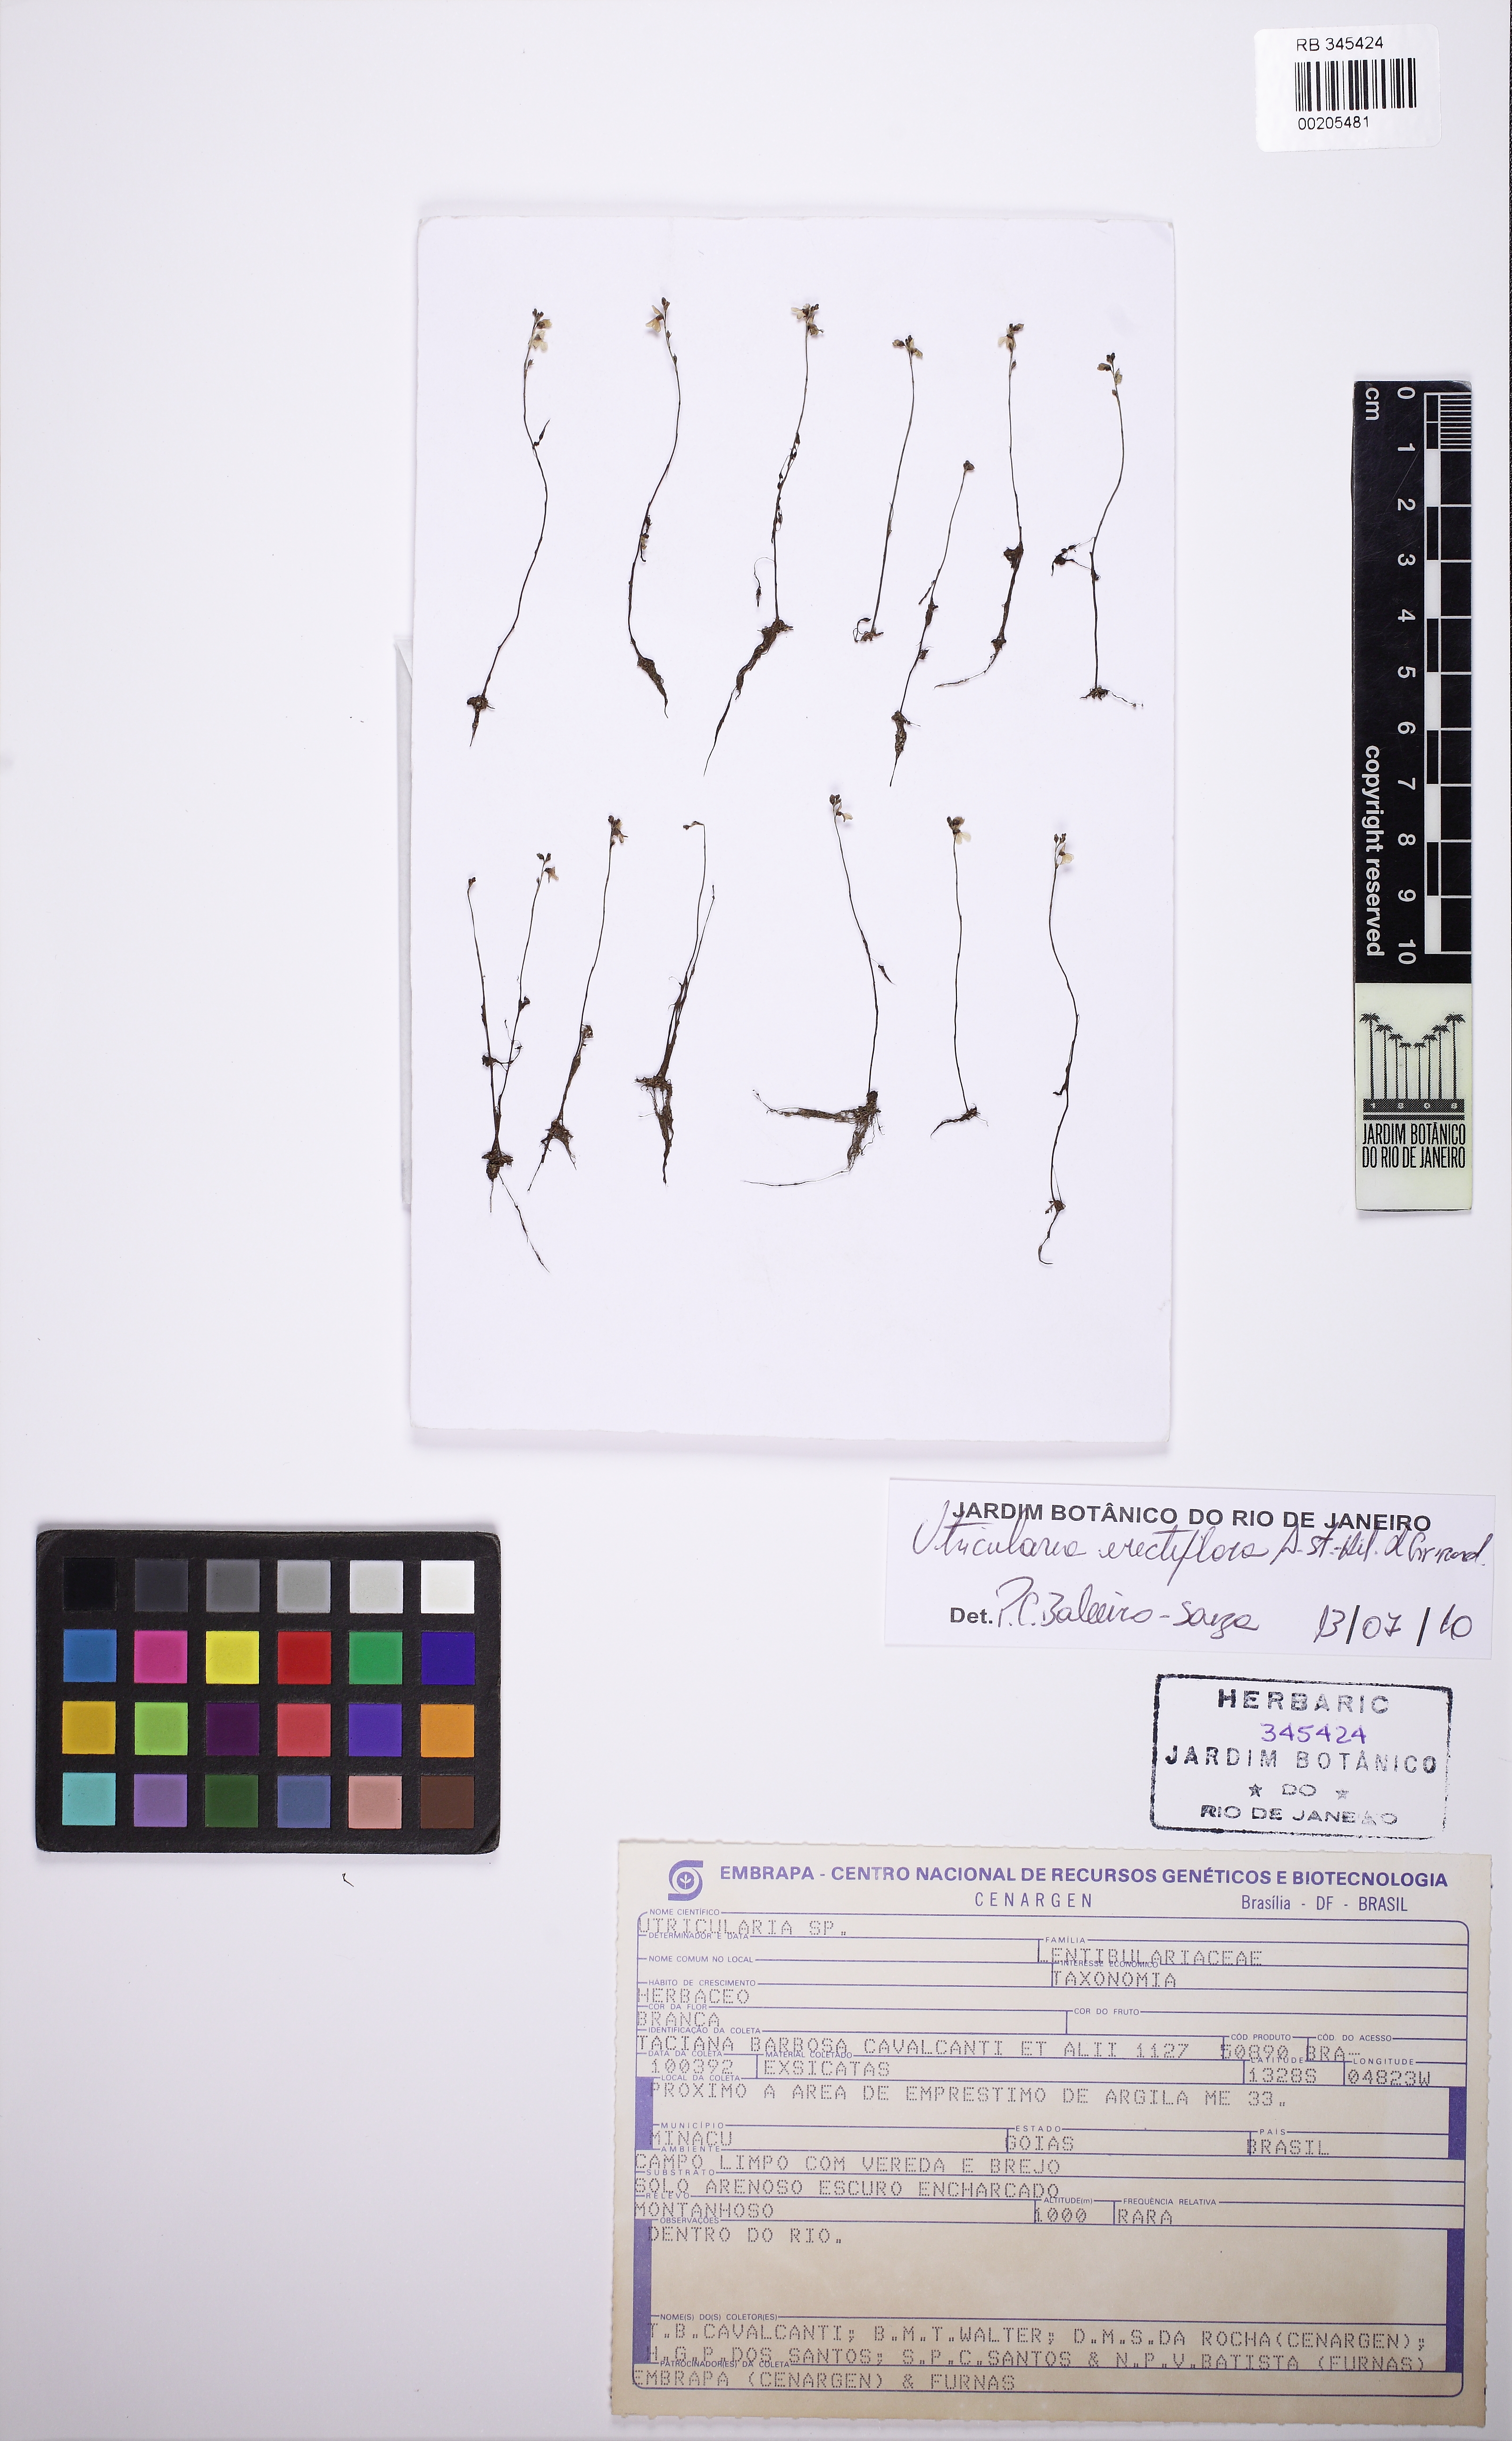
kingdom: Plantae
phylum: Tracheophyta
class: Magnoliopsida
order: Lamiales
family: Lentibulariaceae
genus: Utricularia
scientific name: Utricularia neottioides
